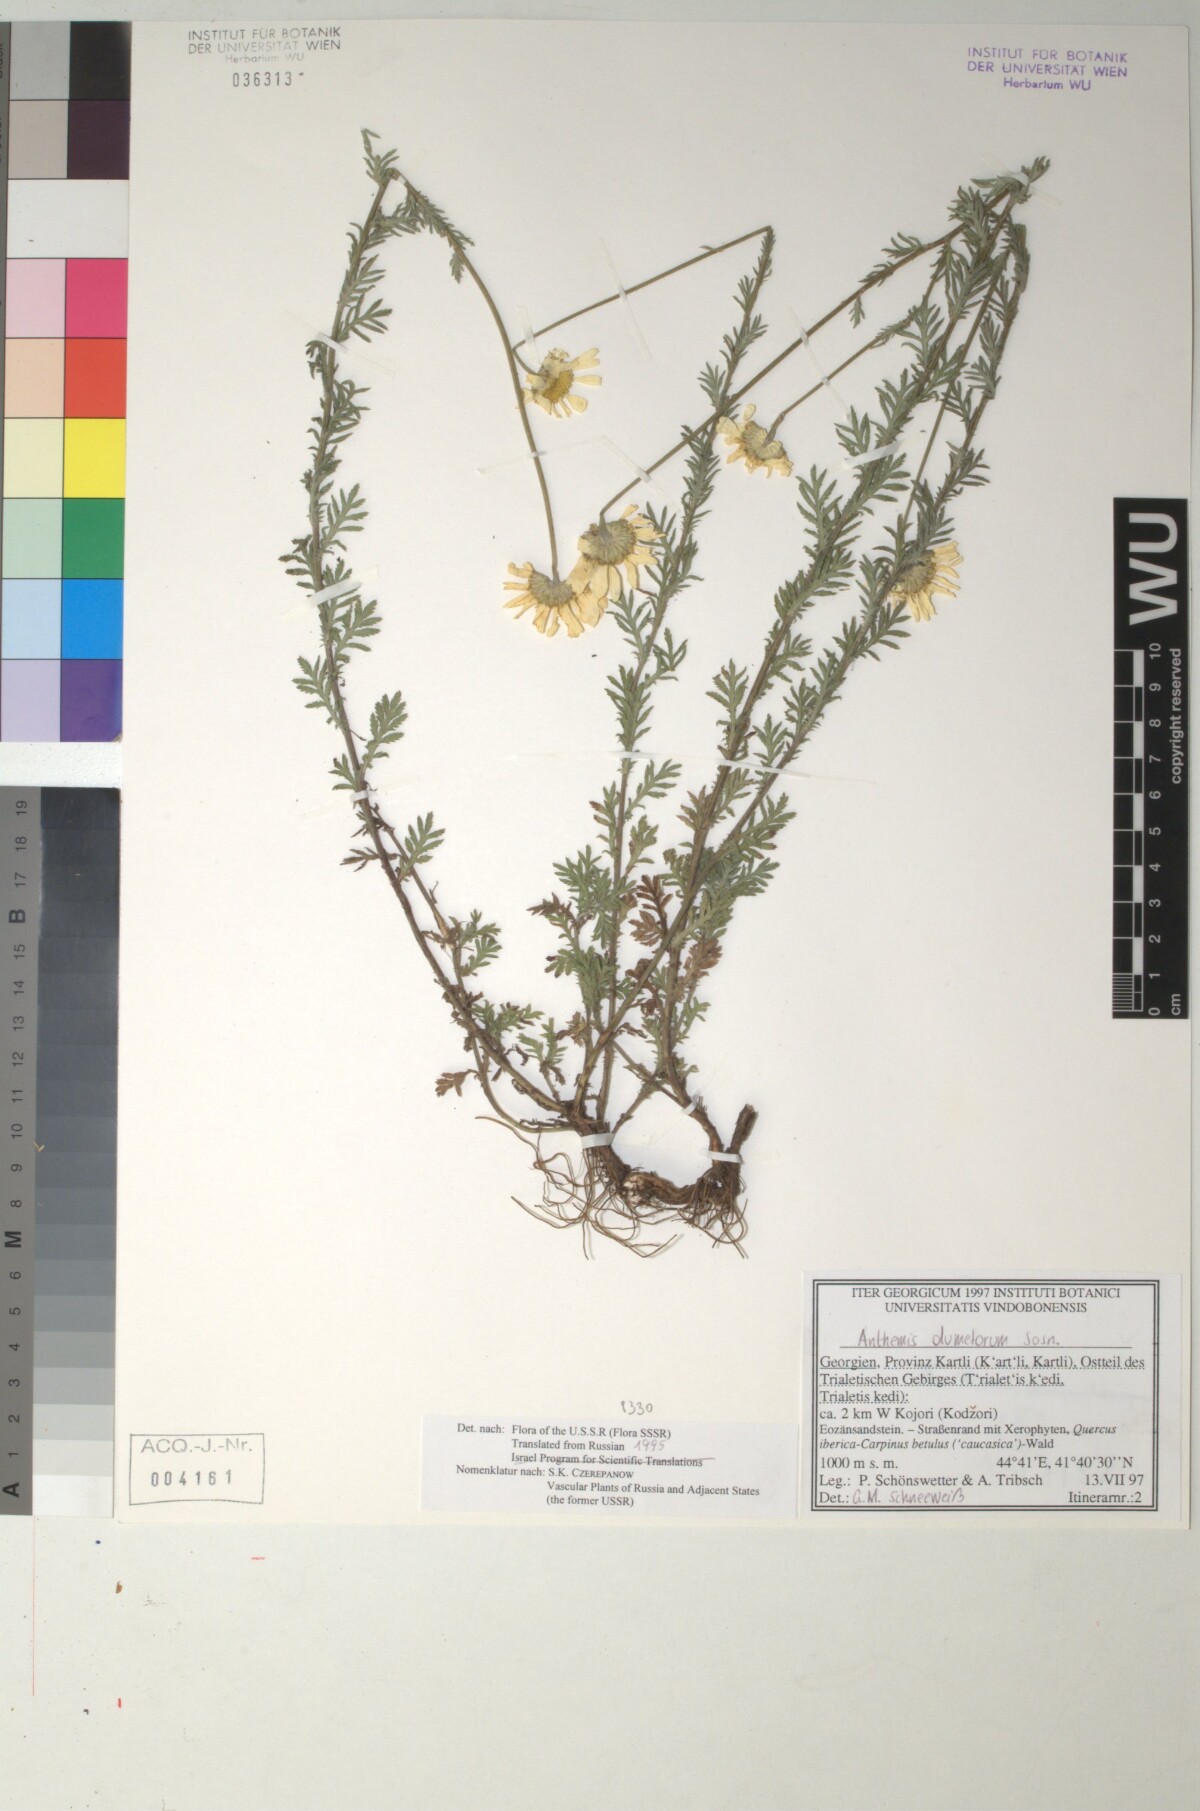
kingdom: Plantae
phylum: Tracheophyta
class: Magnoliopsida
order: Asterales
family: Asteraceae
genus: Cota
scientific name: Cota triumfetti
